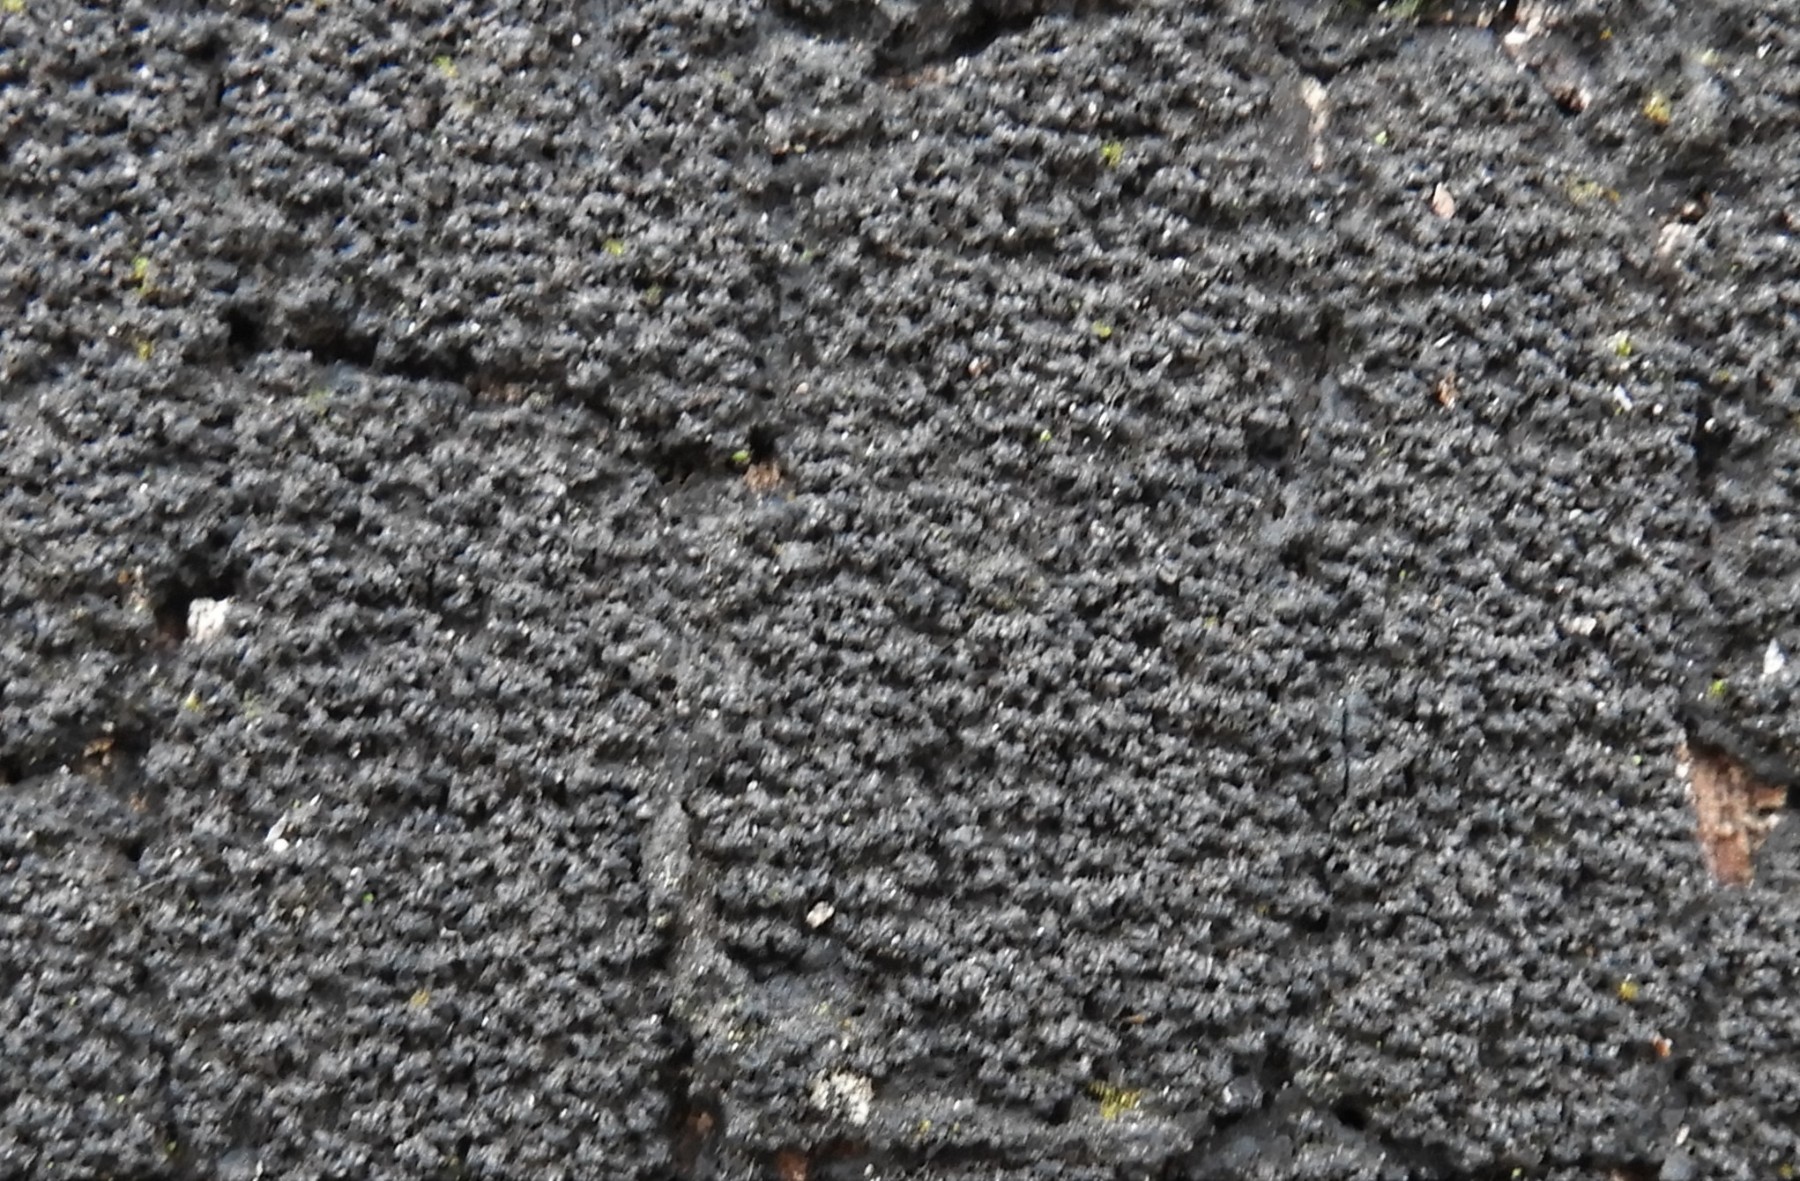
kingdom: Fungi
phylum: Ascomycota
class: Sordariomycetes
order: Xylariales
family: Diatrypaceae
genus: Eutypa
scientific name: Eutypa spinosa
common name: grov kulskorpe
